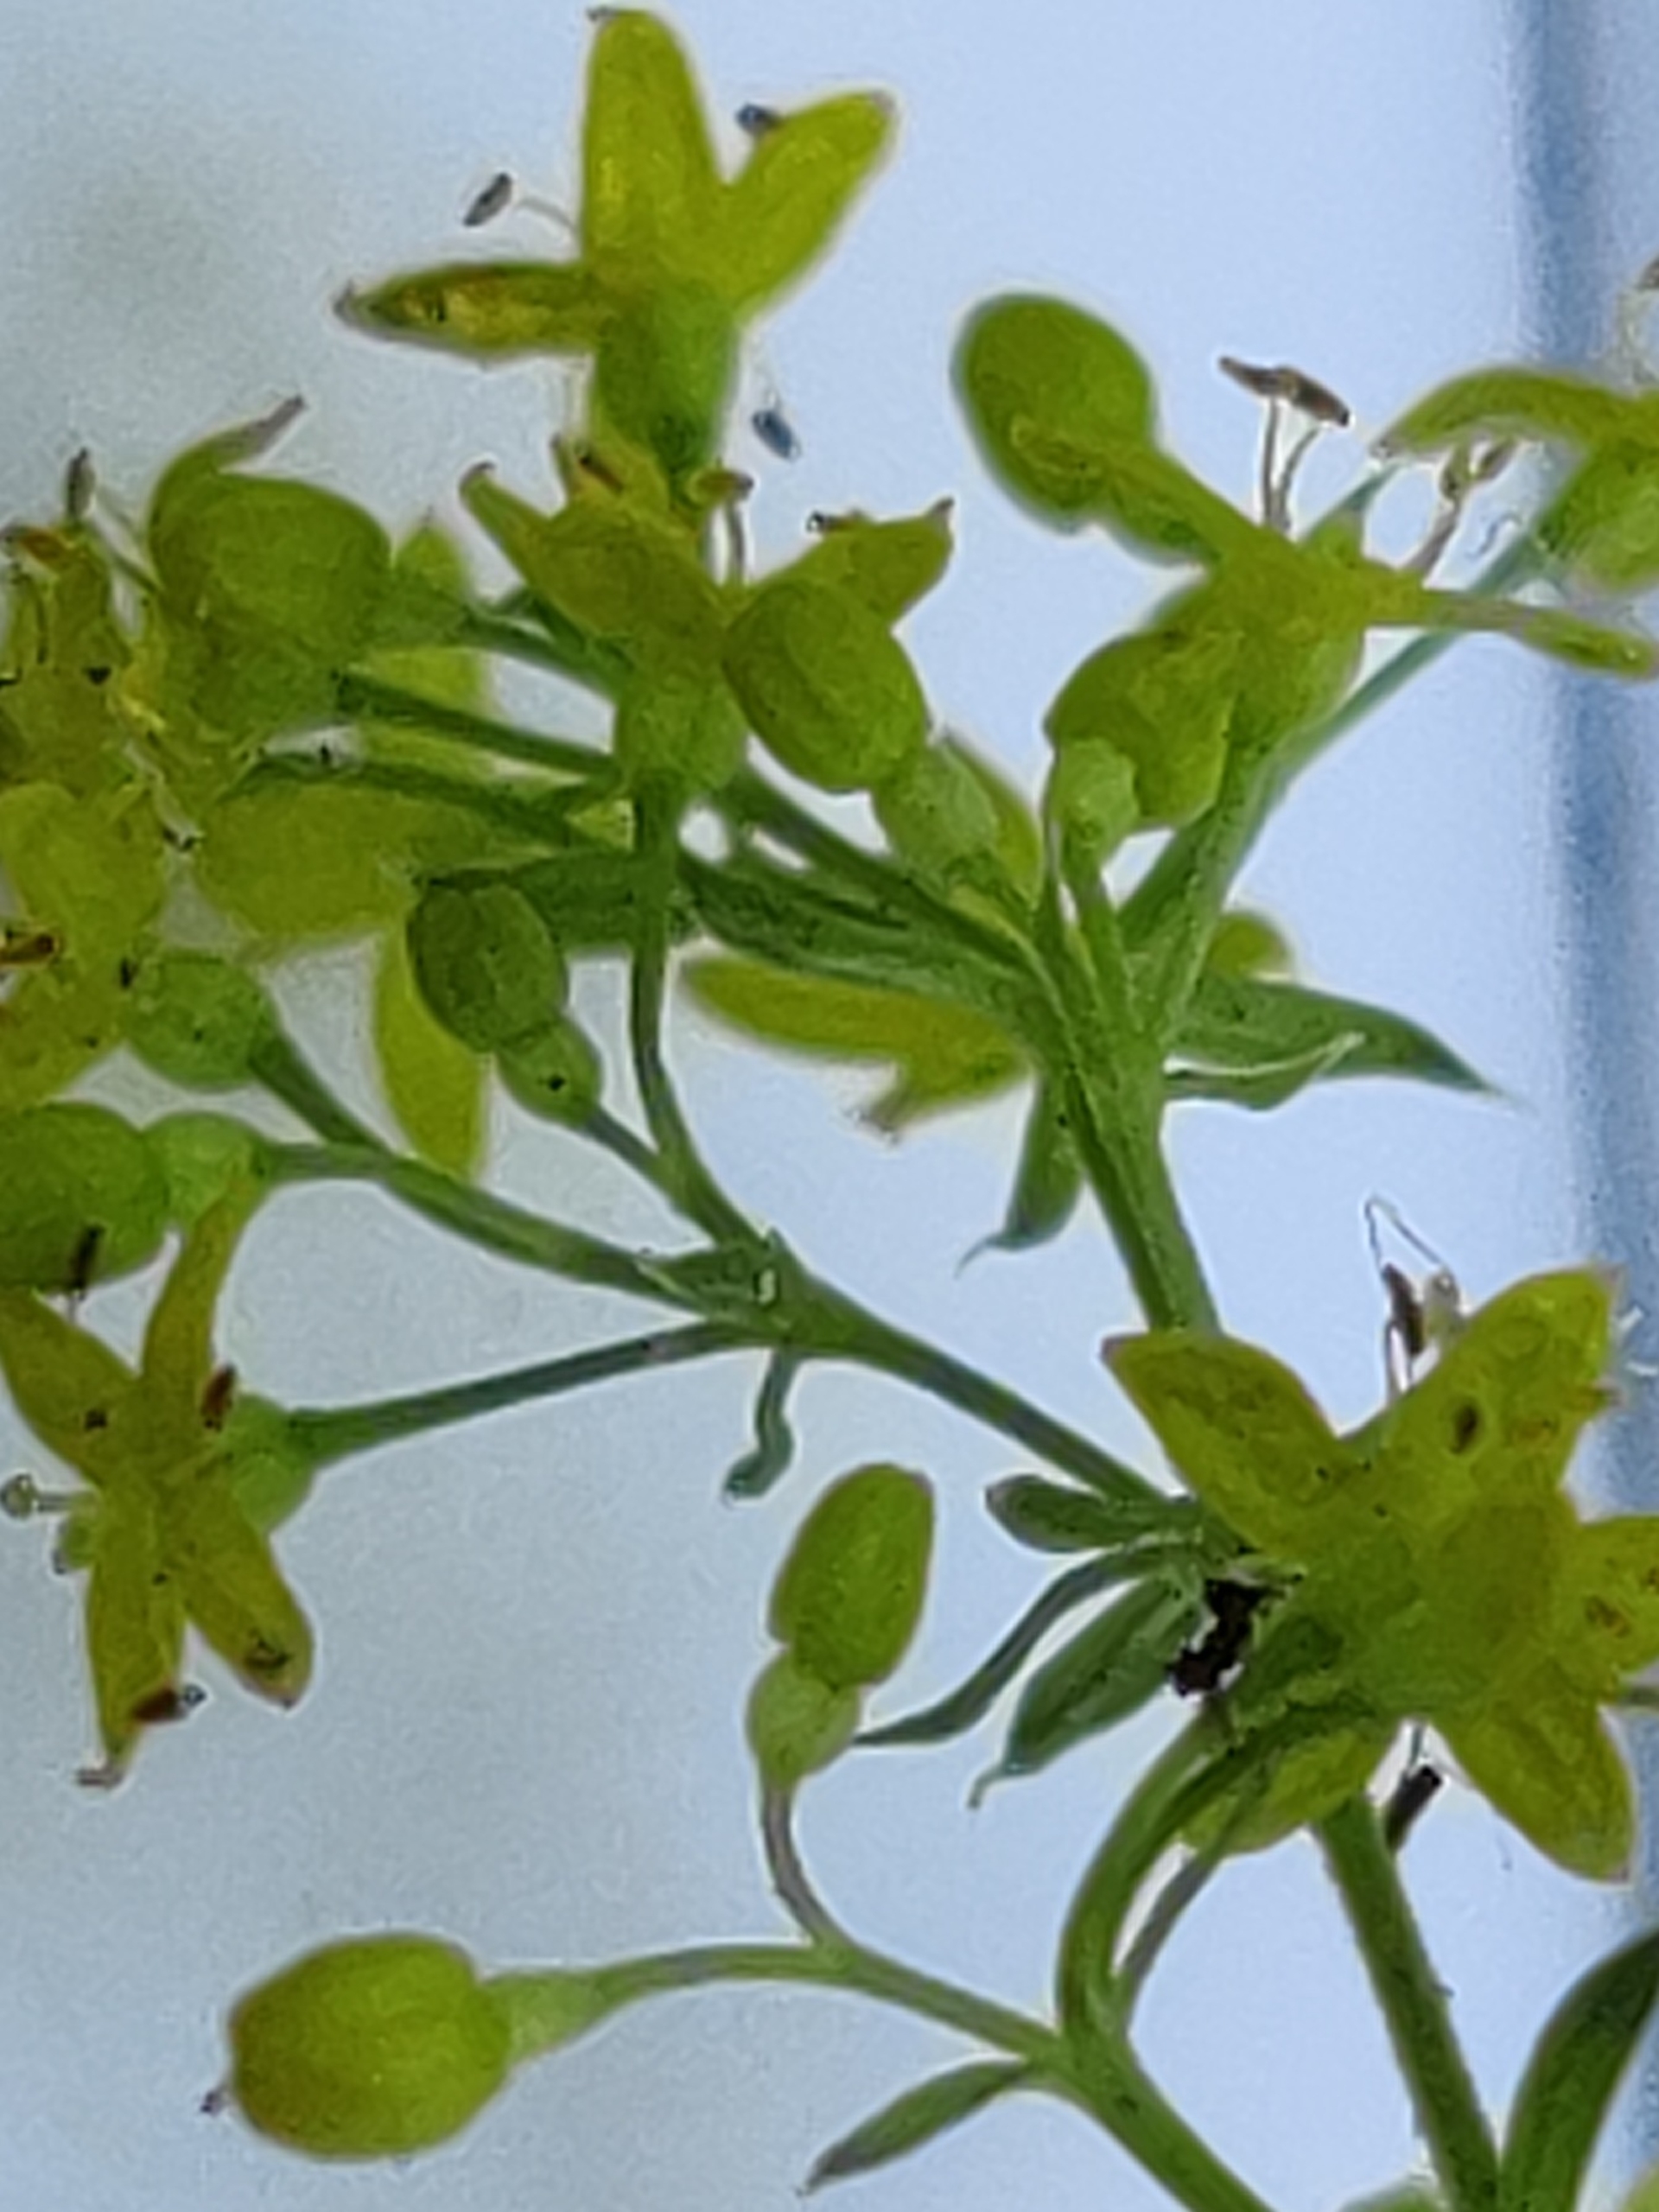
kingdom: Plantae
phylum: Tracheophyta
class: Magnoliopsida
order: Gentianales
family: Rubiaceae
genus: Galium
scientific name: Galium verum
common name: Gul snerre
